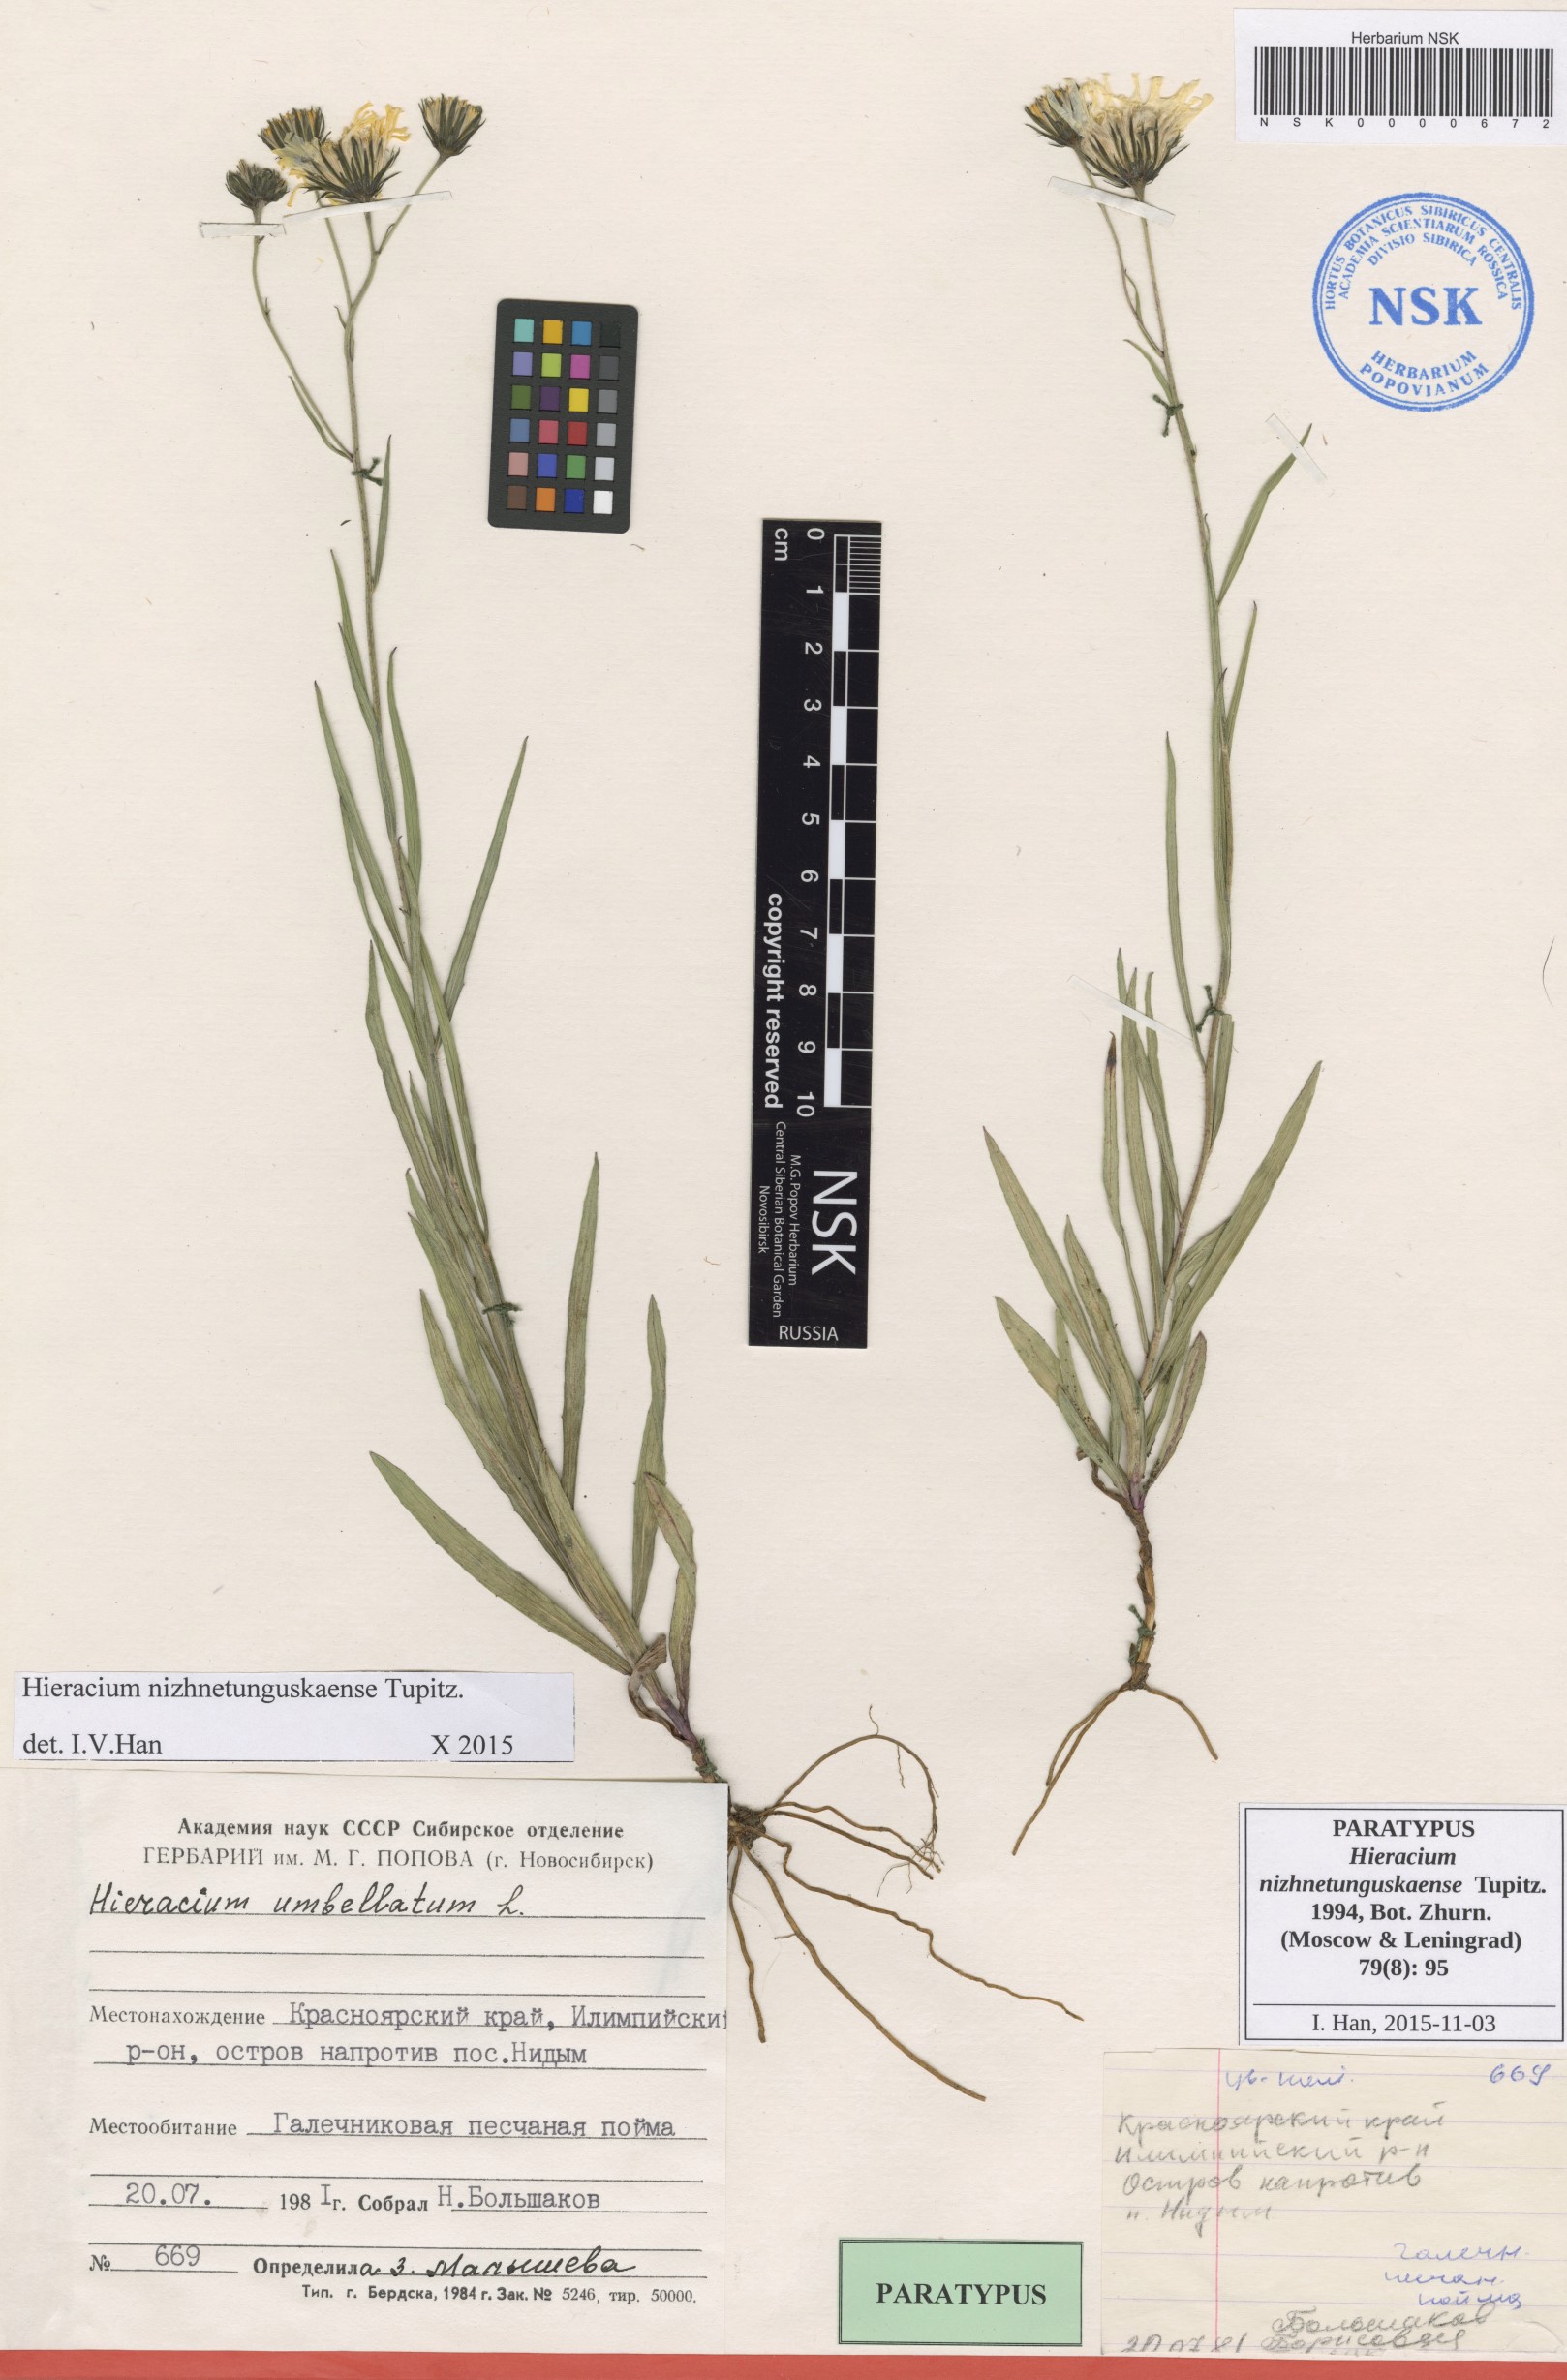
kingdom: Plantae
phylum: Tracheophyta
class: Magnoliopsida
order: Asterales
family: Asteraceae
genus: Hieracium
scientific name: Hieracium nizhnetunguskaense
